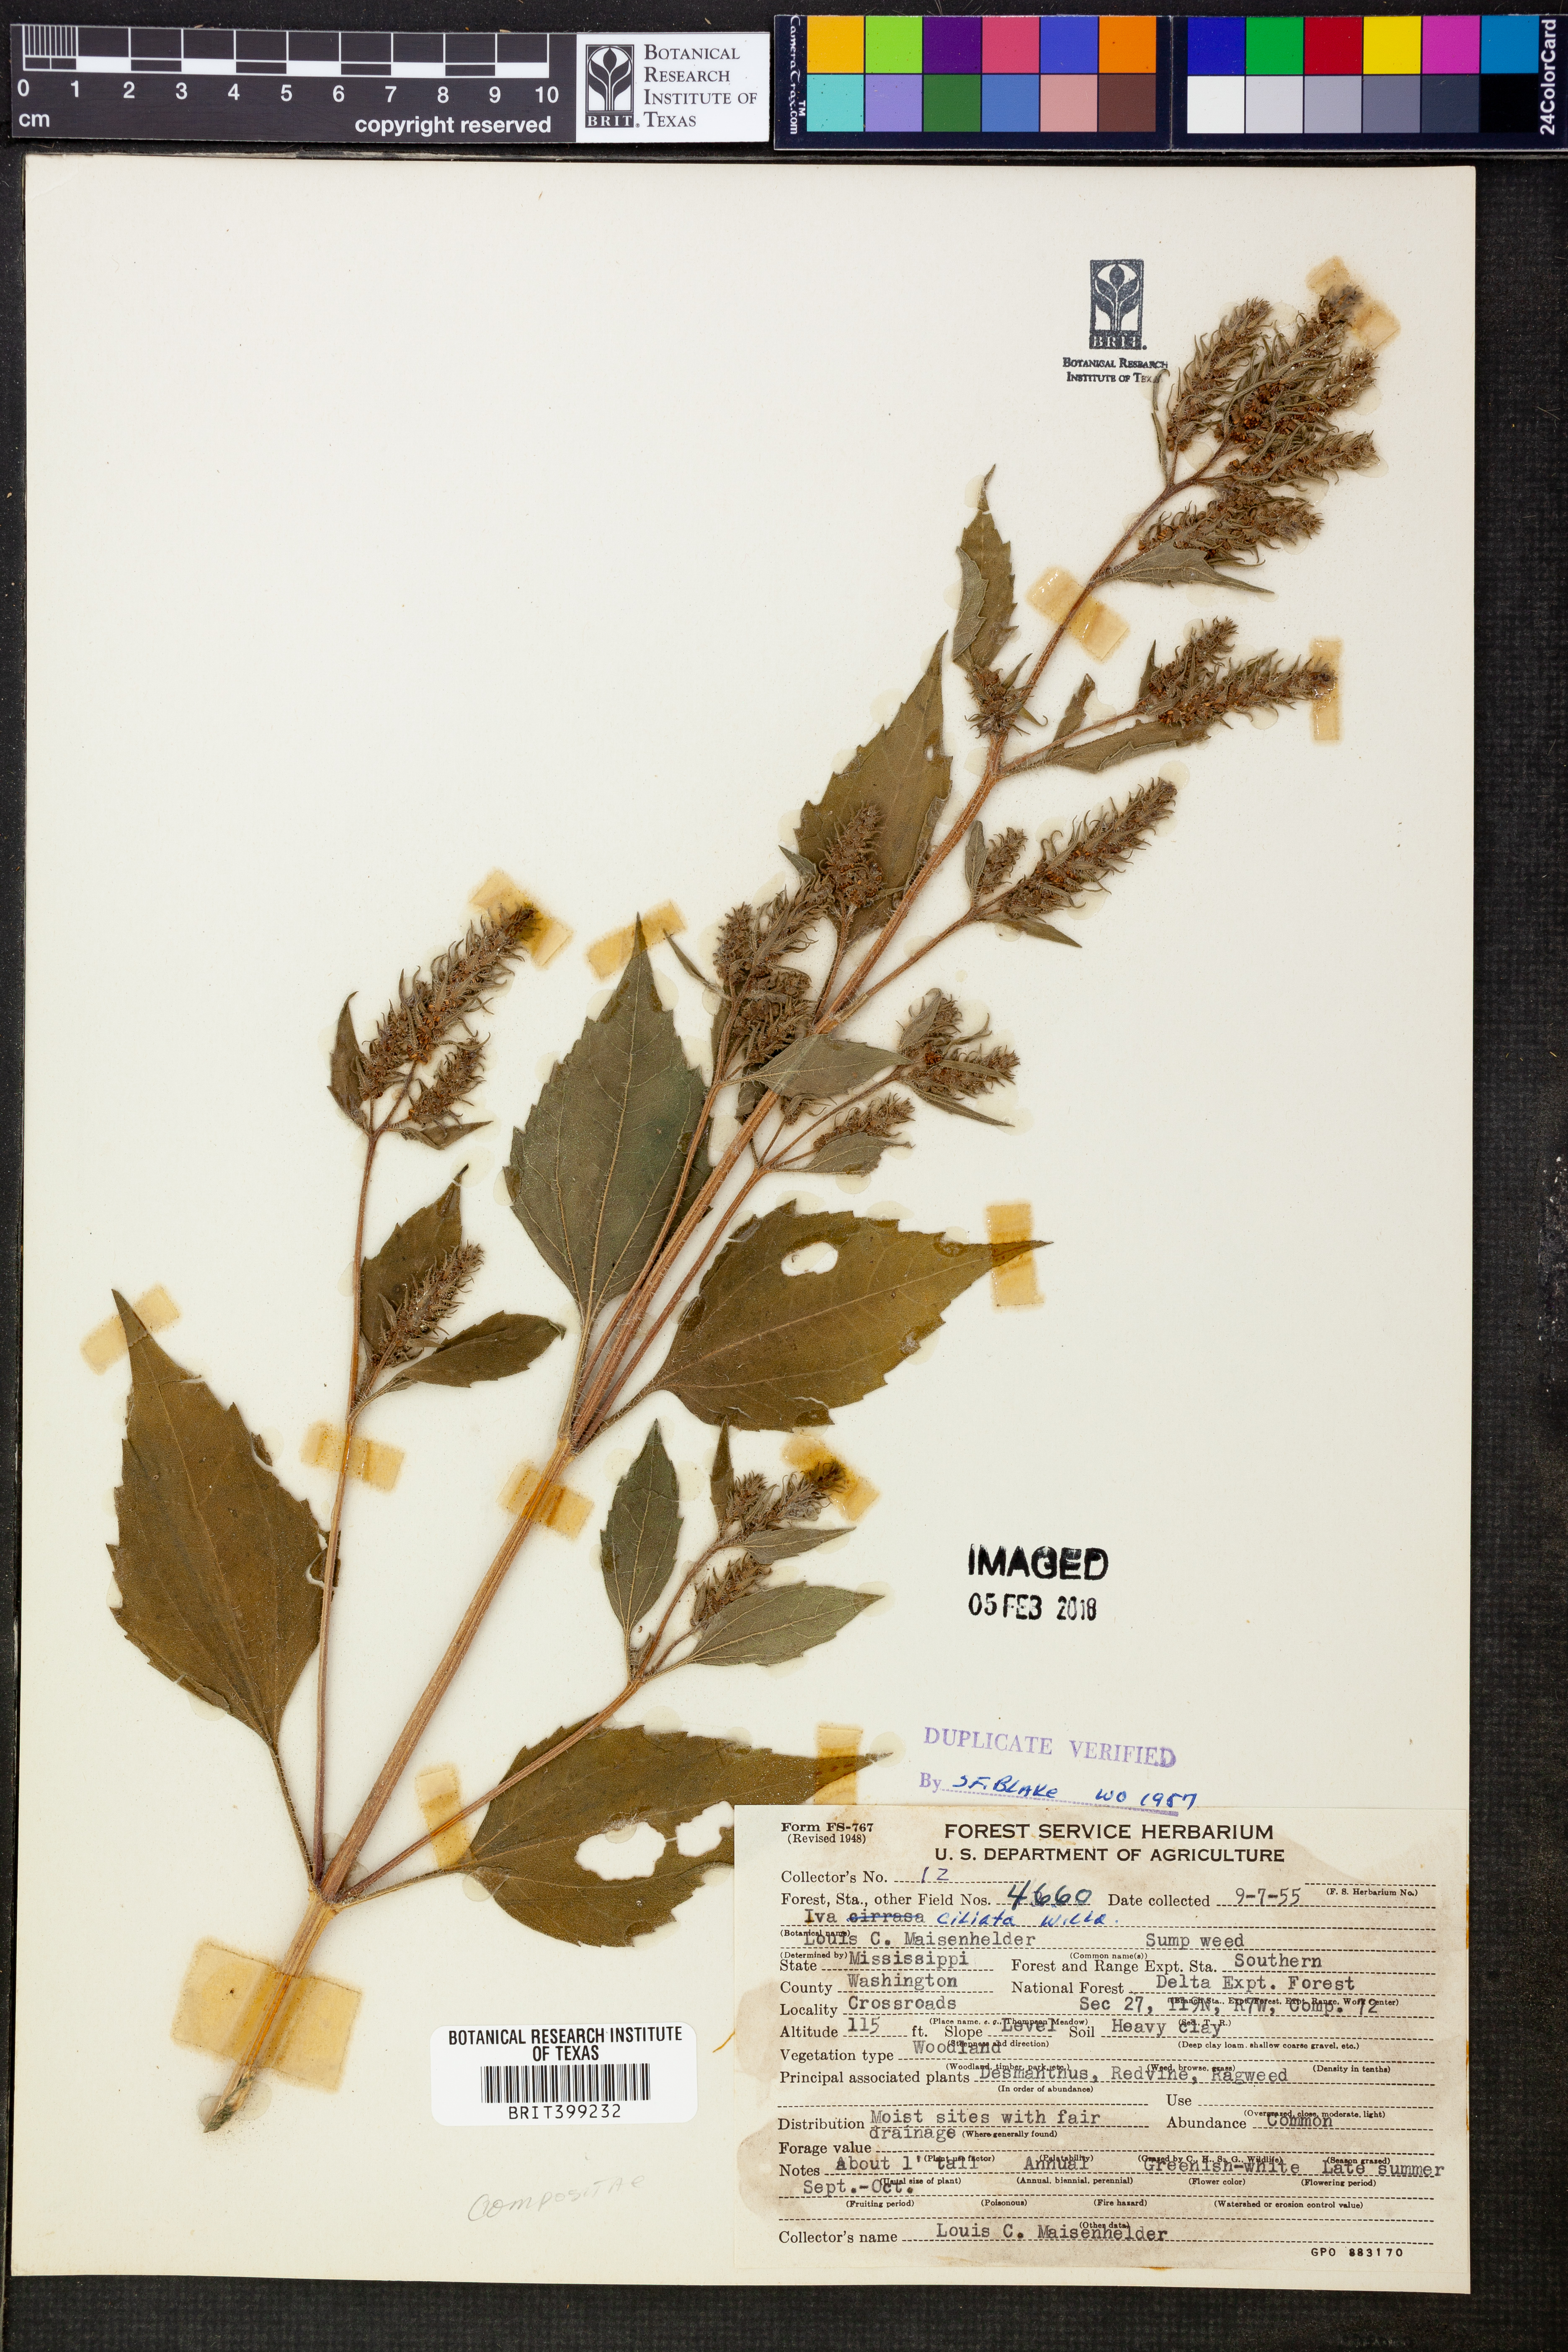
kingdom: Plantae
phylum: Tracheophyta
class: Magnoliopsida
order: Asterales
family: Asteraceae
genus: Iva
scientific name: Iva annua
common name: Marsh-elder
